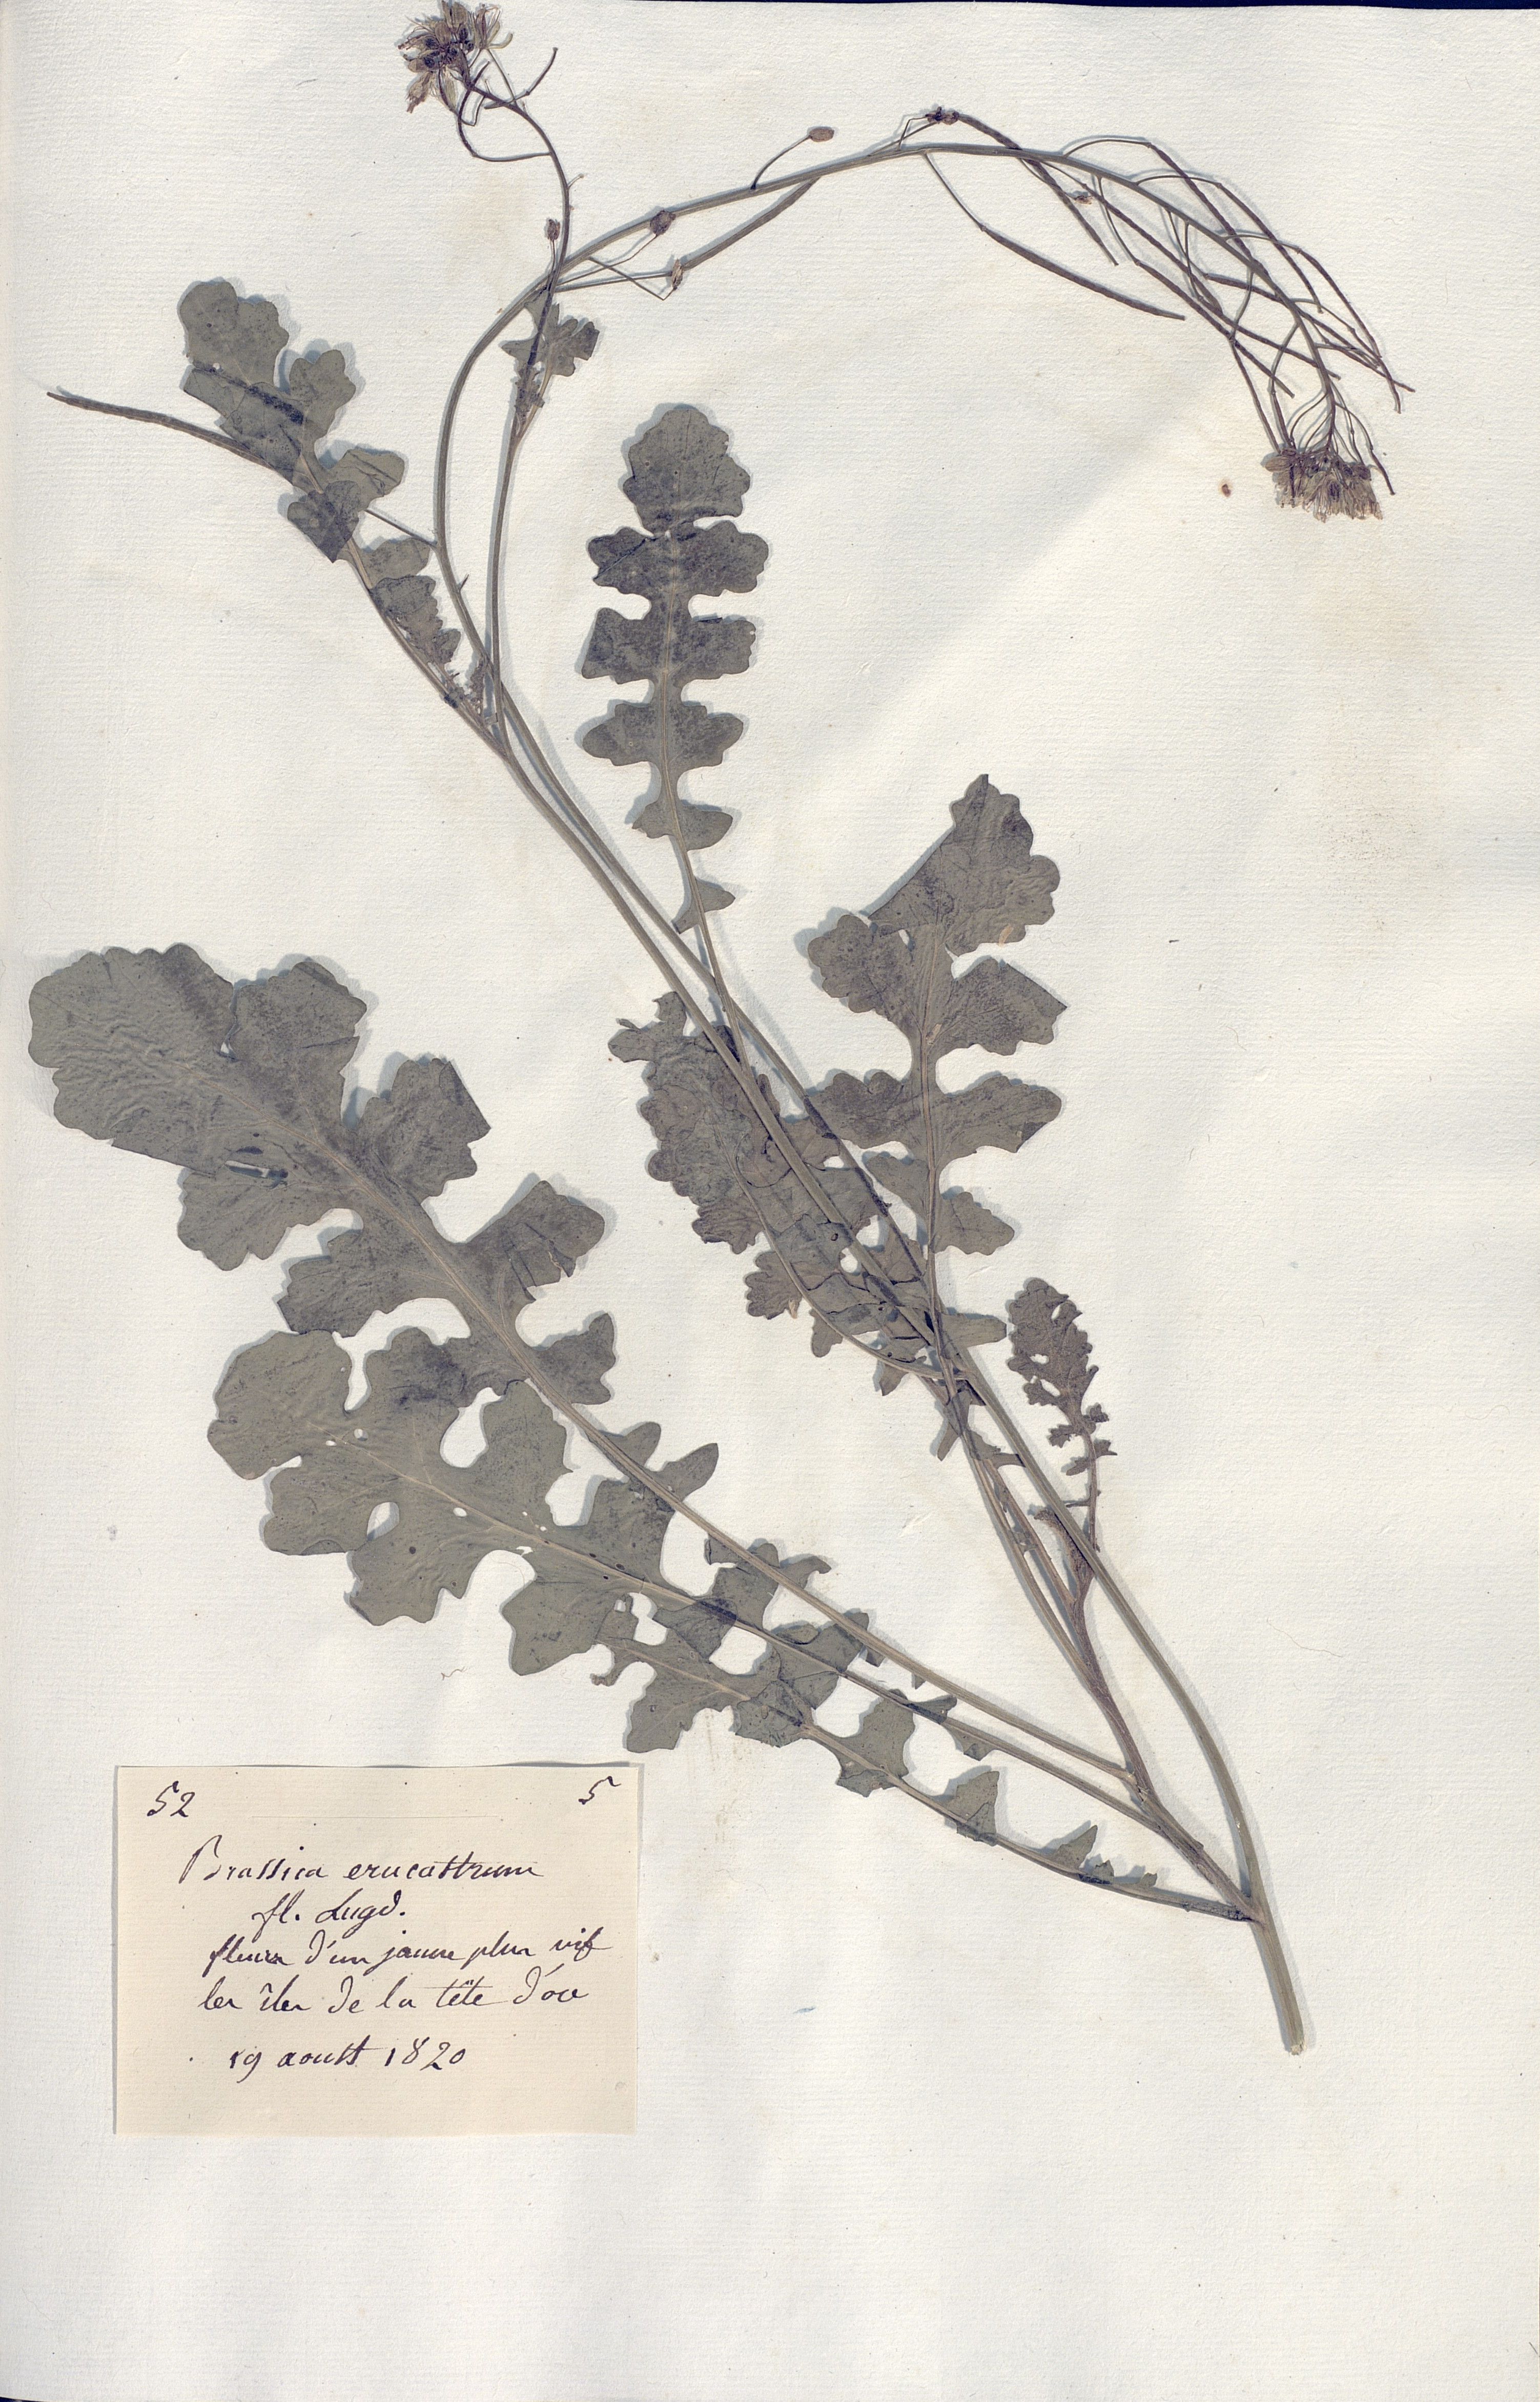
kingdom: Plantae
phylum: Tracheophyta
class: Magnoliopsida
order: Brassicales
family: Brassicaceae
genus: Brassica
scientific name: Brassica erucastrum
